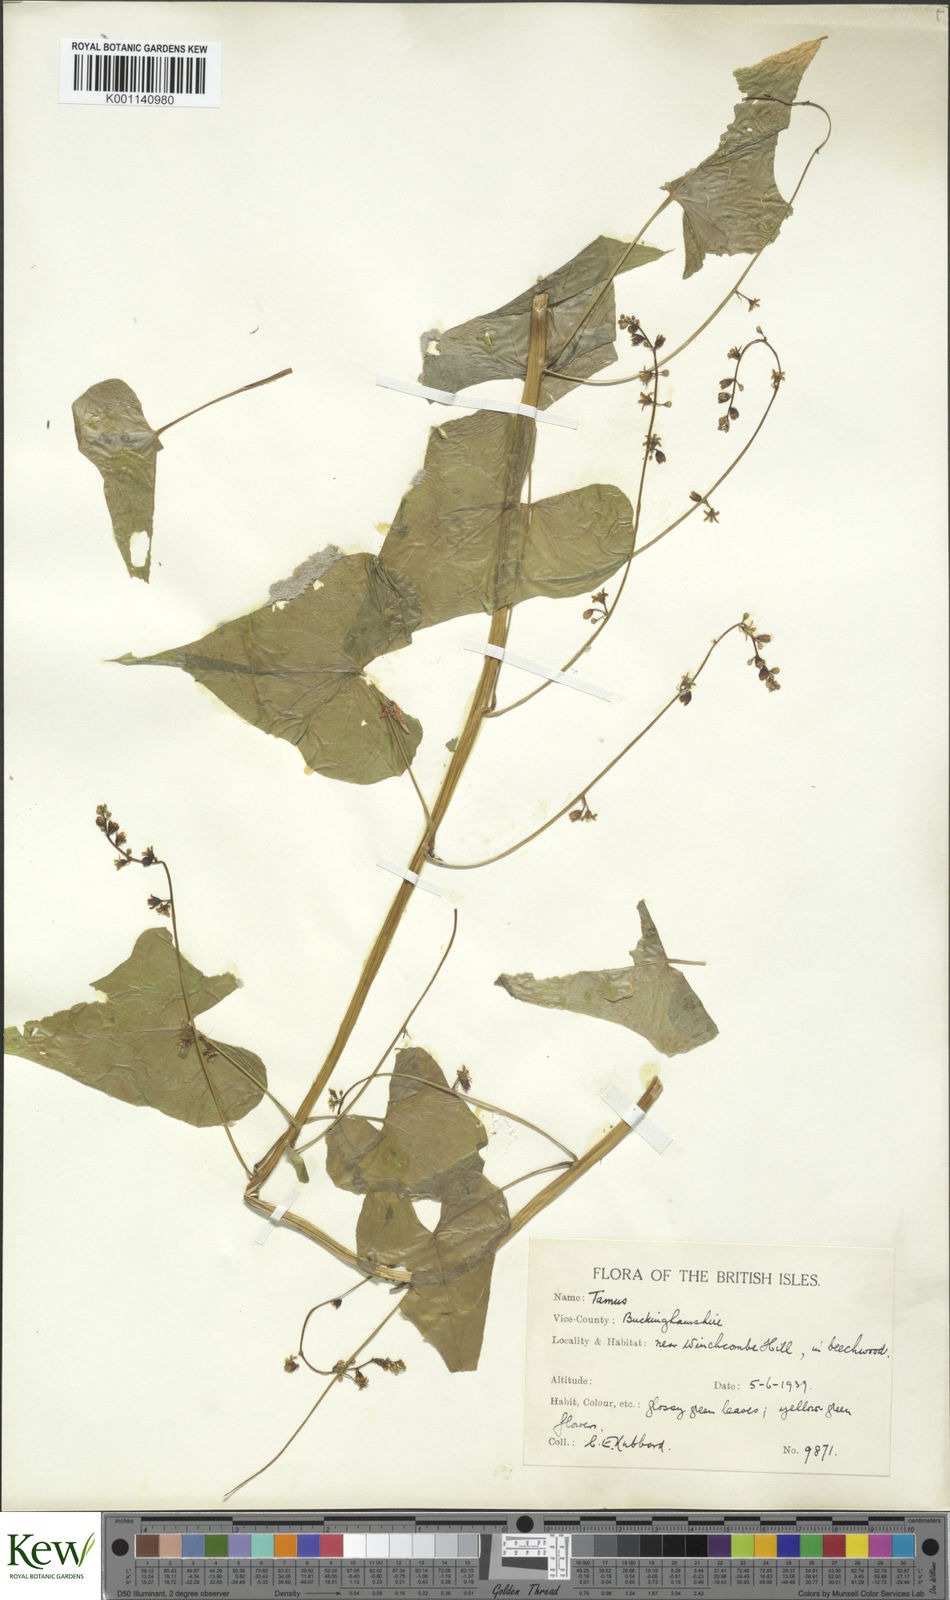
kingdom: Plantae
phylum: Tracheophyta
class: Liliopsida
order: Dioscoreales
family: Dioscoreaceae
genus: Dioscorea
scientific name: Dioscorea communis
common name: Black-bindweed
